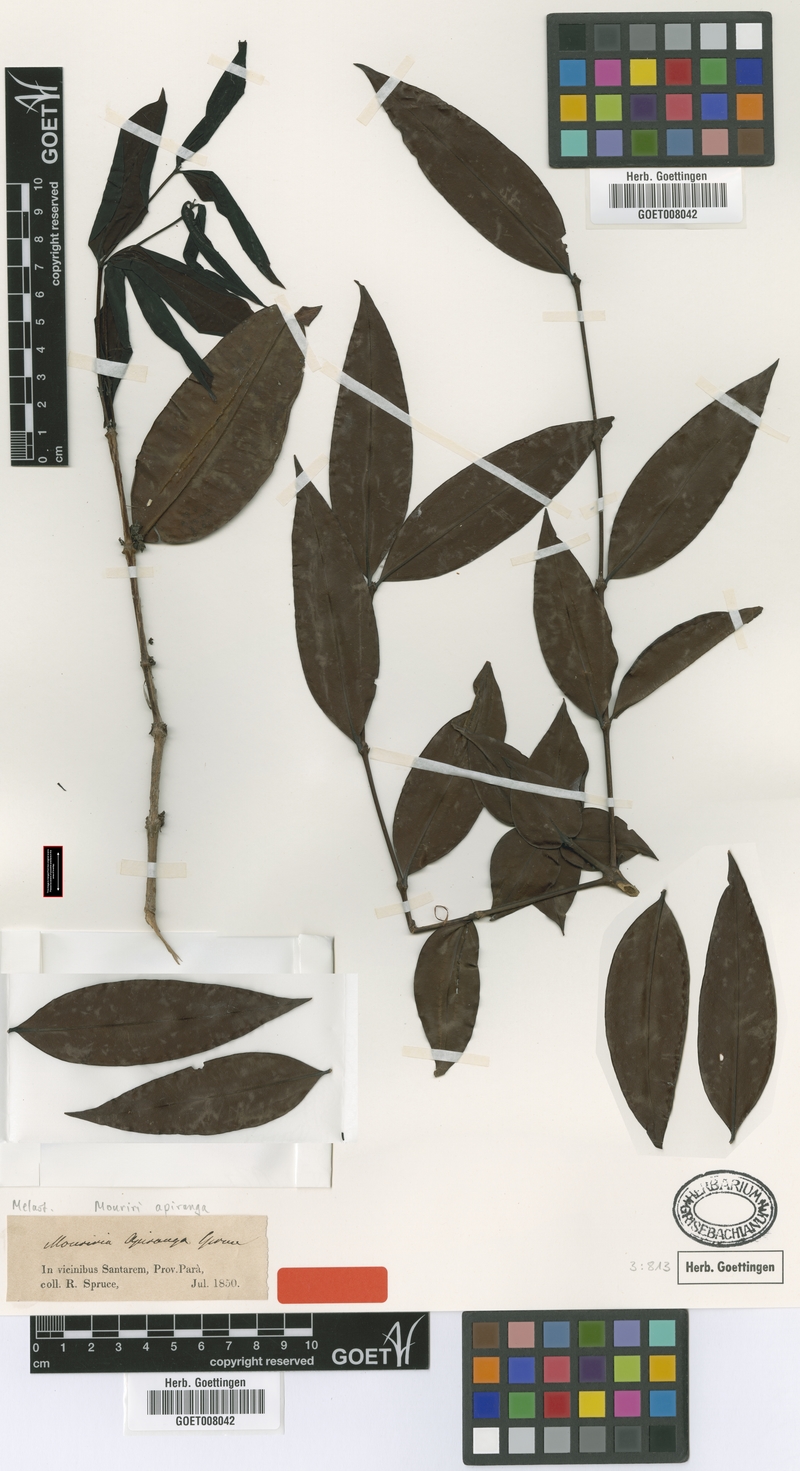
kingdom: Plantae
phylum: Tracheophyta
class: Magnoliopsida
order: Myrtales
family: Melastomataceae
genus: Mouriri
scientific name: Mouriri apiranga
